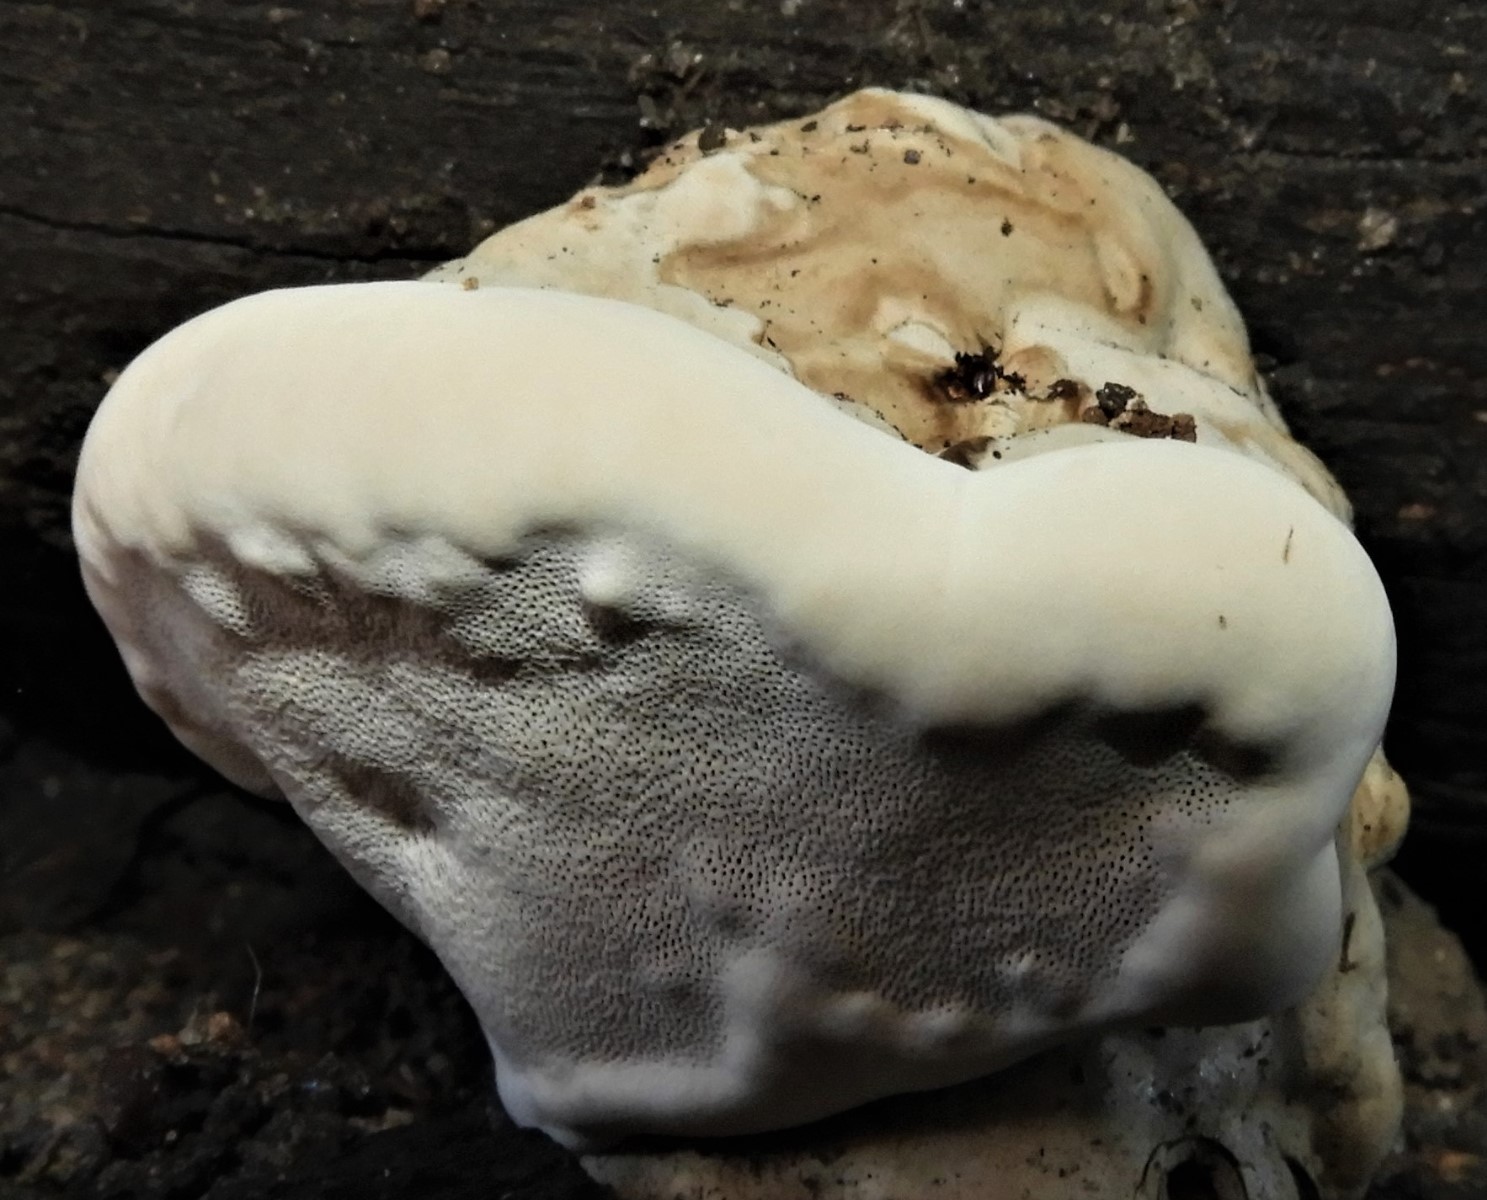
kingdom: Fungi
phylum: Basidiomycota
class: Agaricomycetes
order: Polyporales
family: Fomitopsidaceae
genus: Fomitopsis
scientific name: Fomitopsis pinicola
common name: randbæltet hovporesvamp
